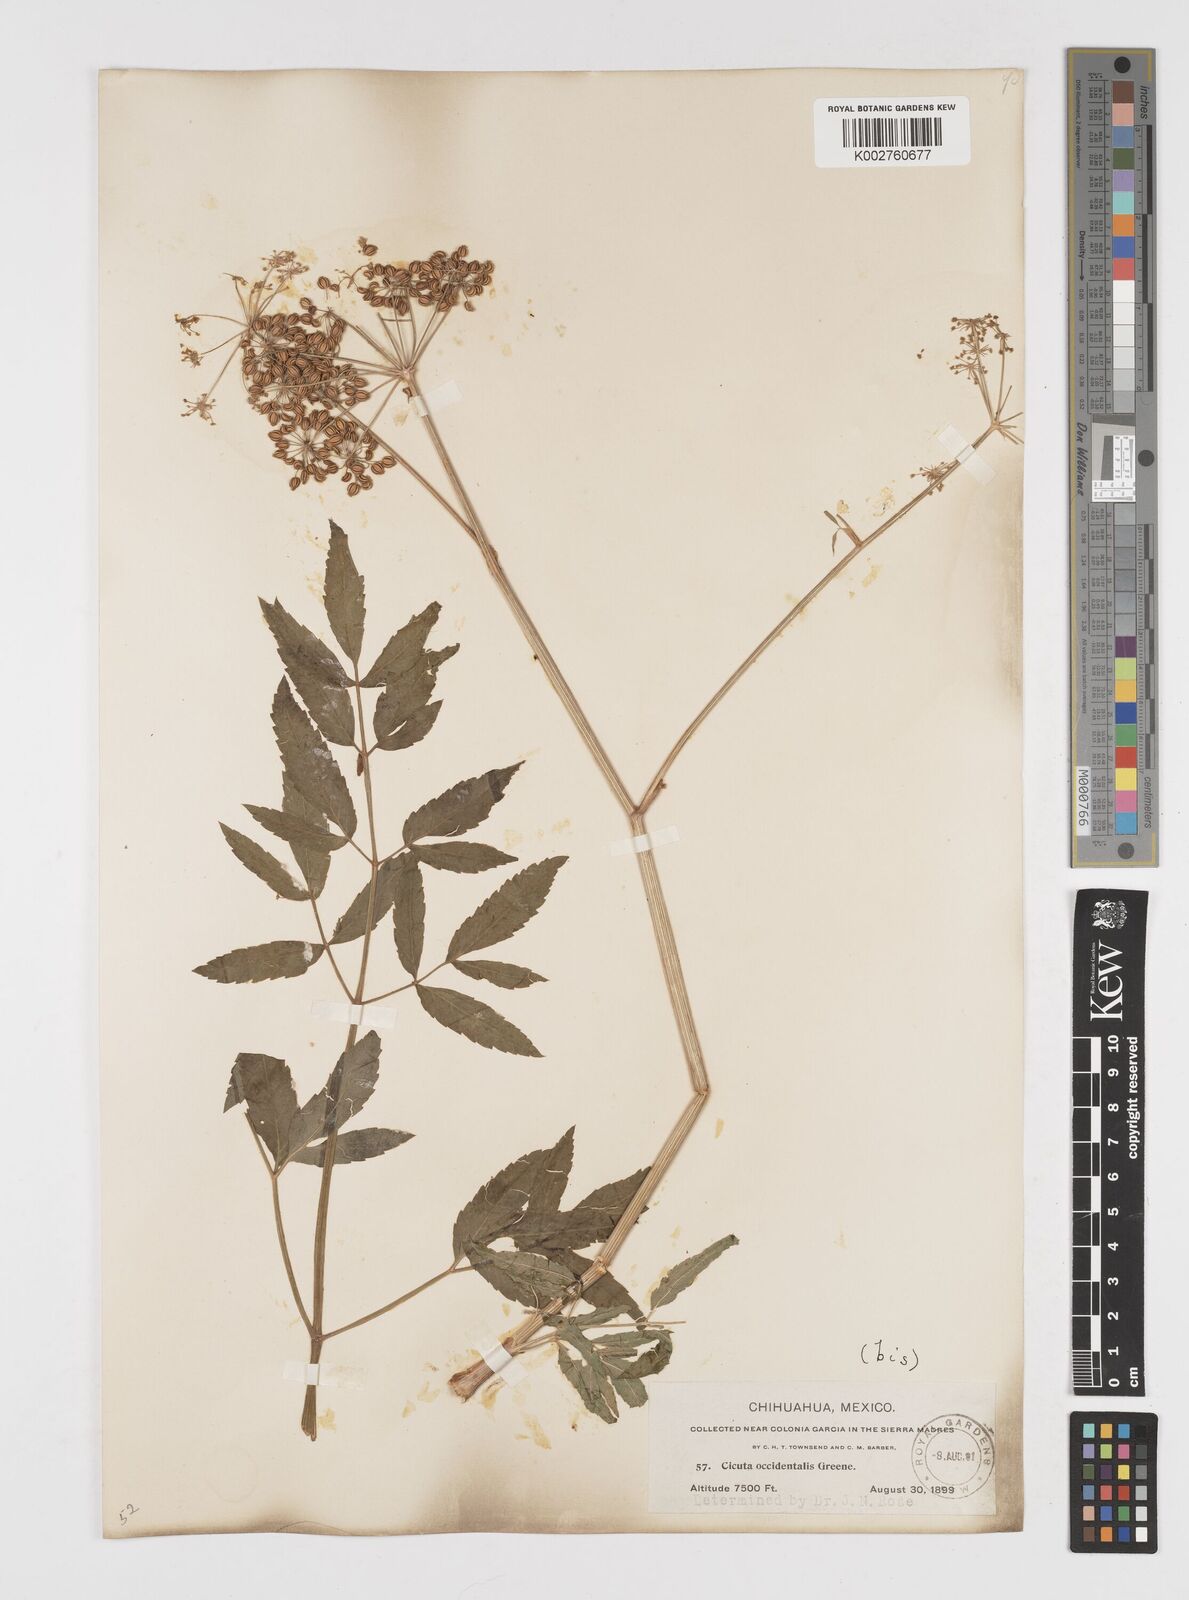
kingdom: Plantae
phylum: Tracheophyta
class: Magnoliopsida
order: Apiales
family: Apiaceae
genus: Cicuta
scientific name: Cicuta douglasii
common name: Western water-hemlock
